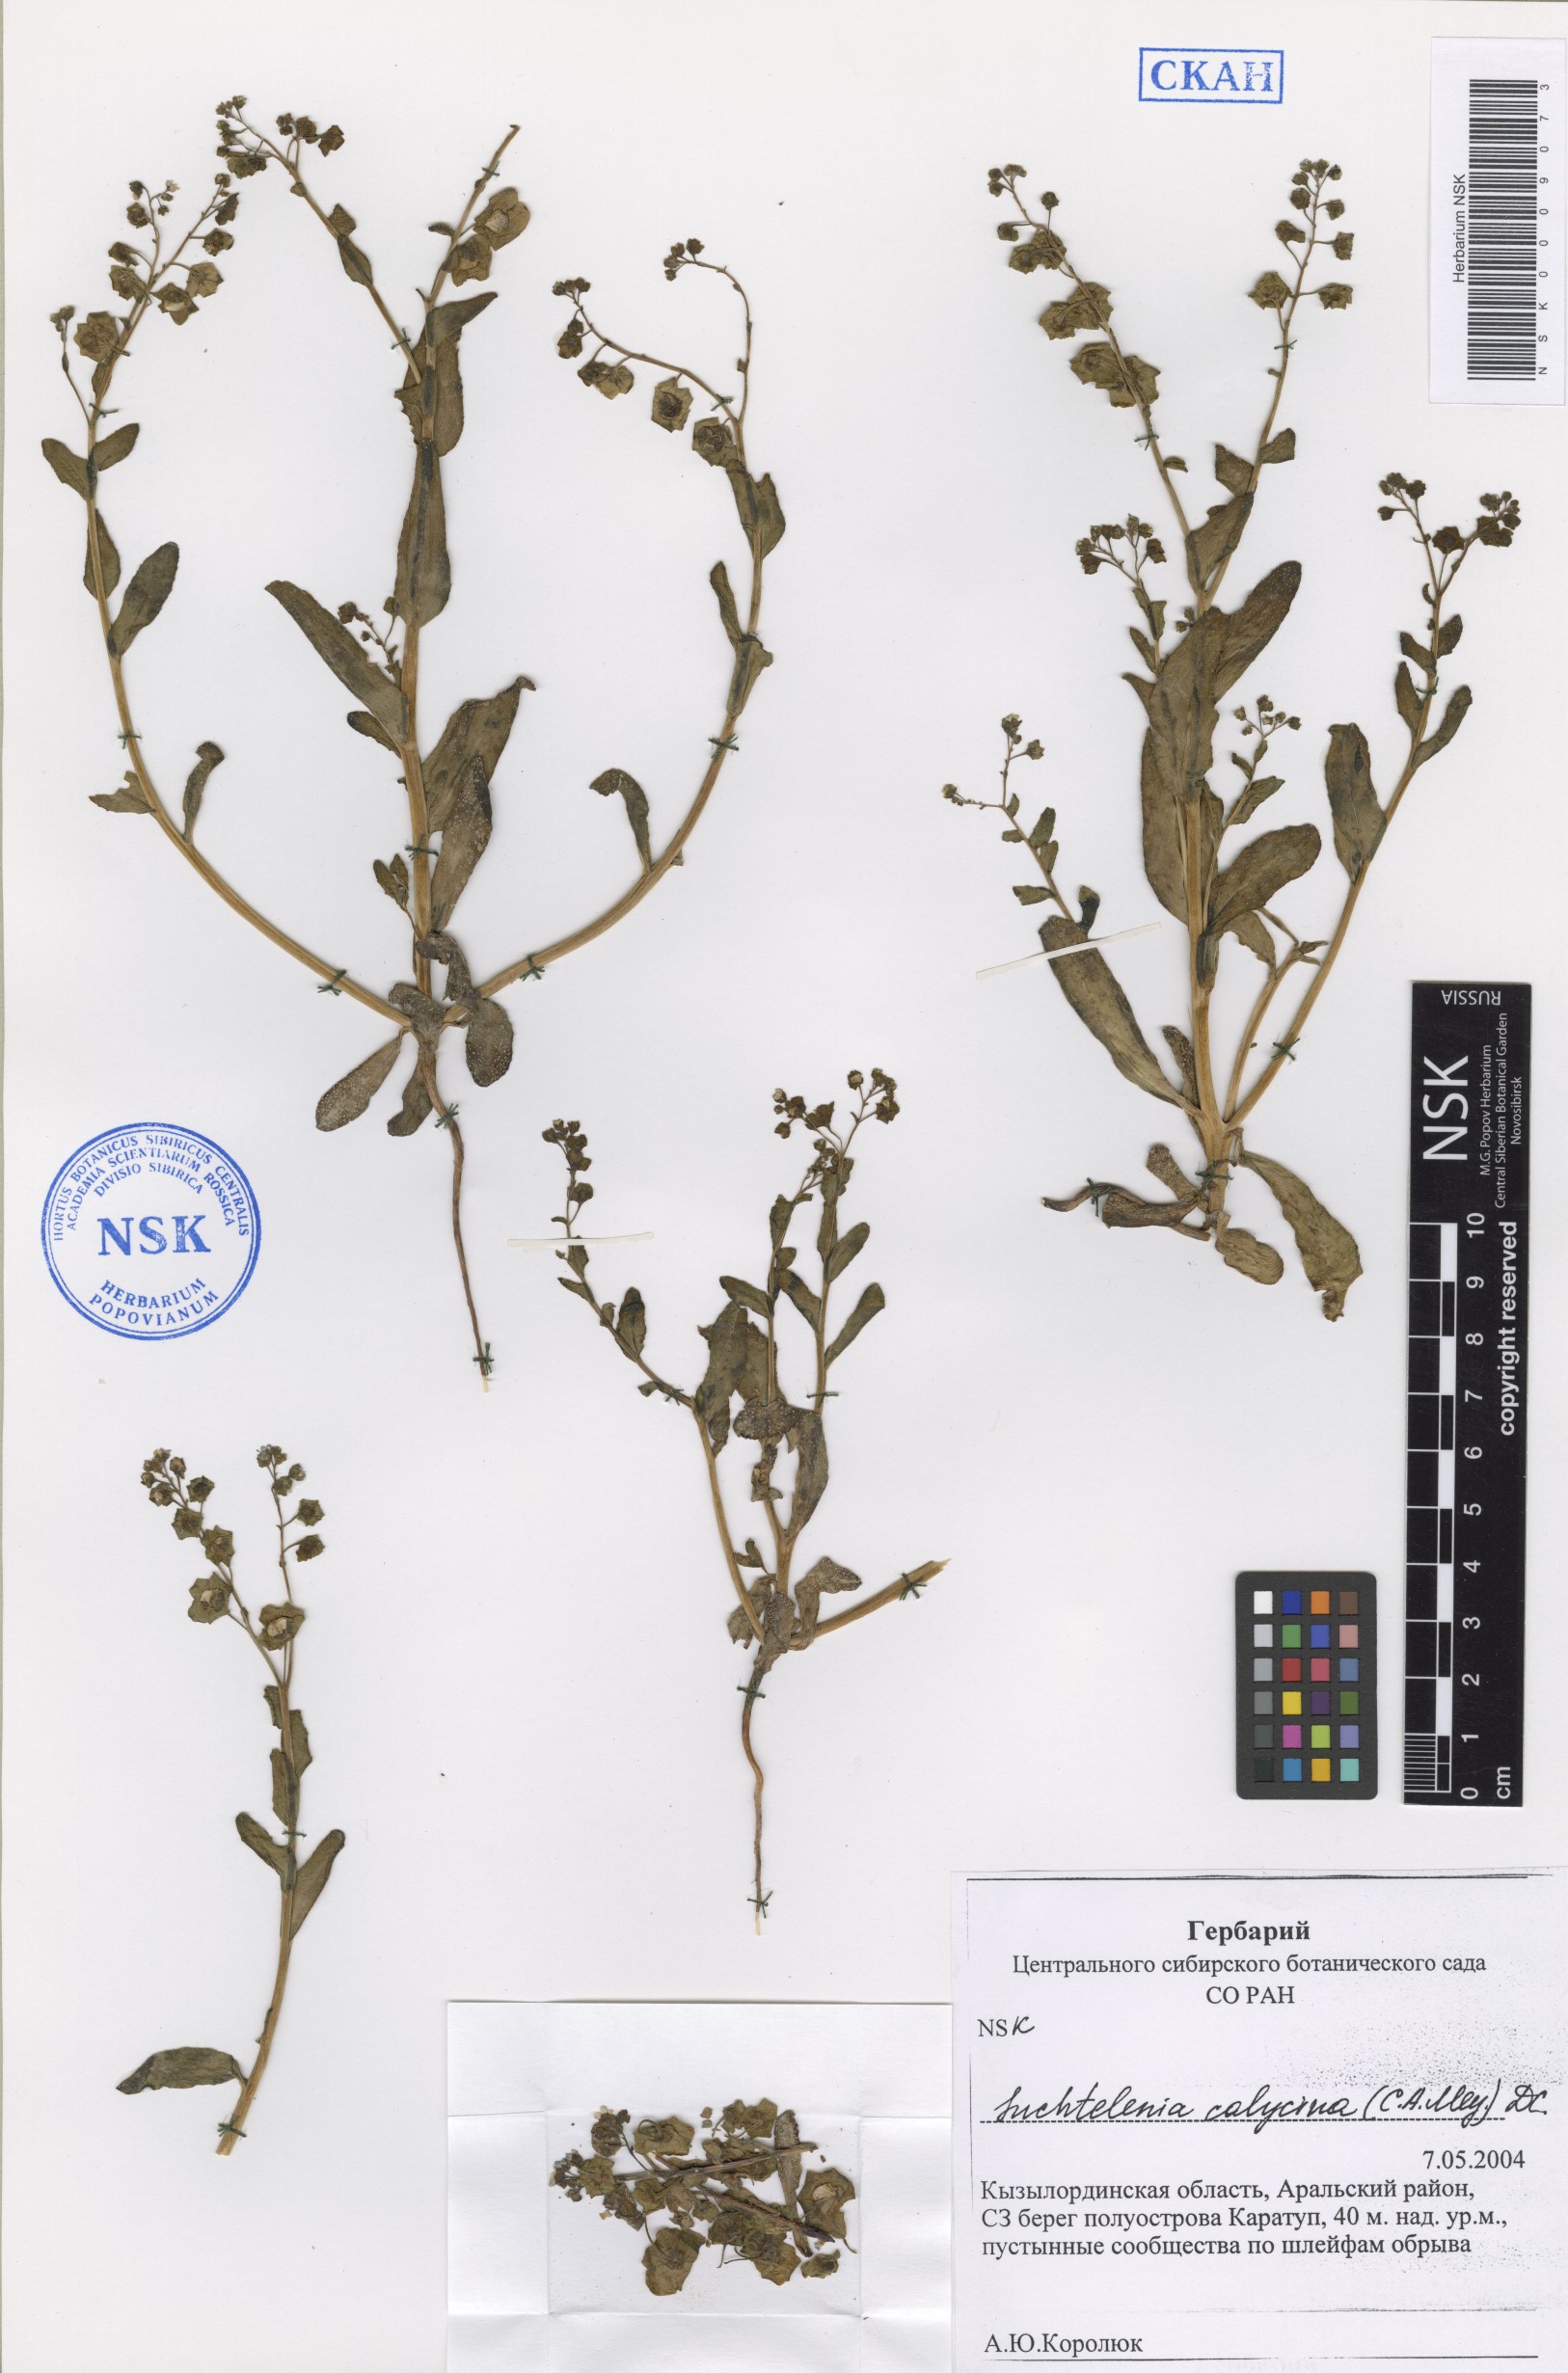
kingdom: Plantae
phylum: Tracheophyta
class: Magnoliopsida
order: Boraginales
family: Boraginaceae
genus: Suchtelenia
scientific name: Suchtelenia calycina
